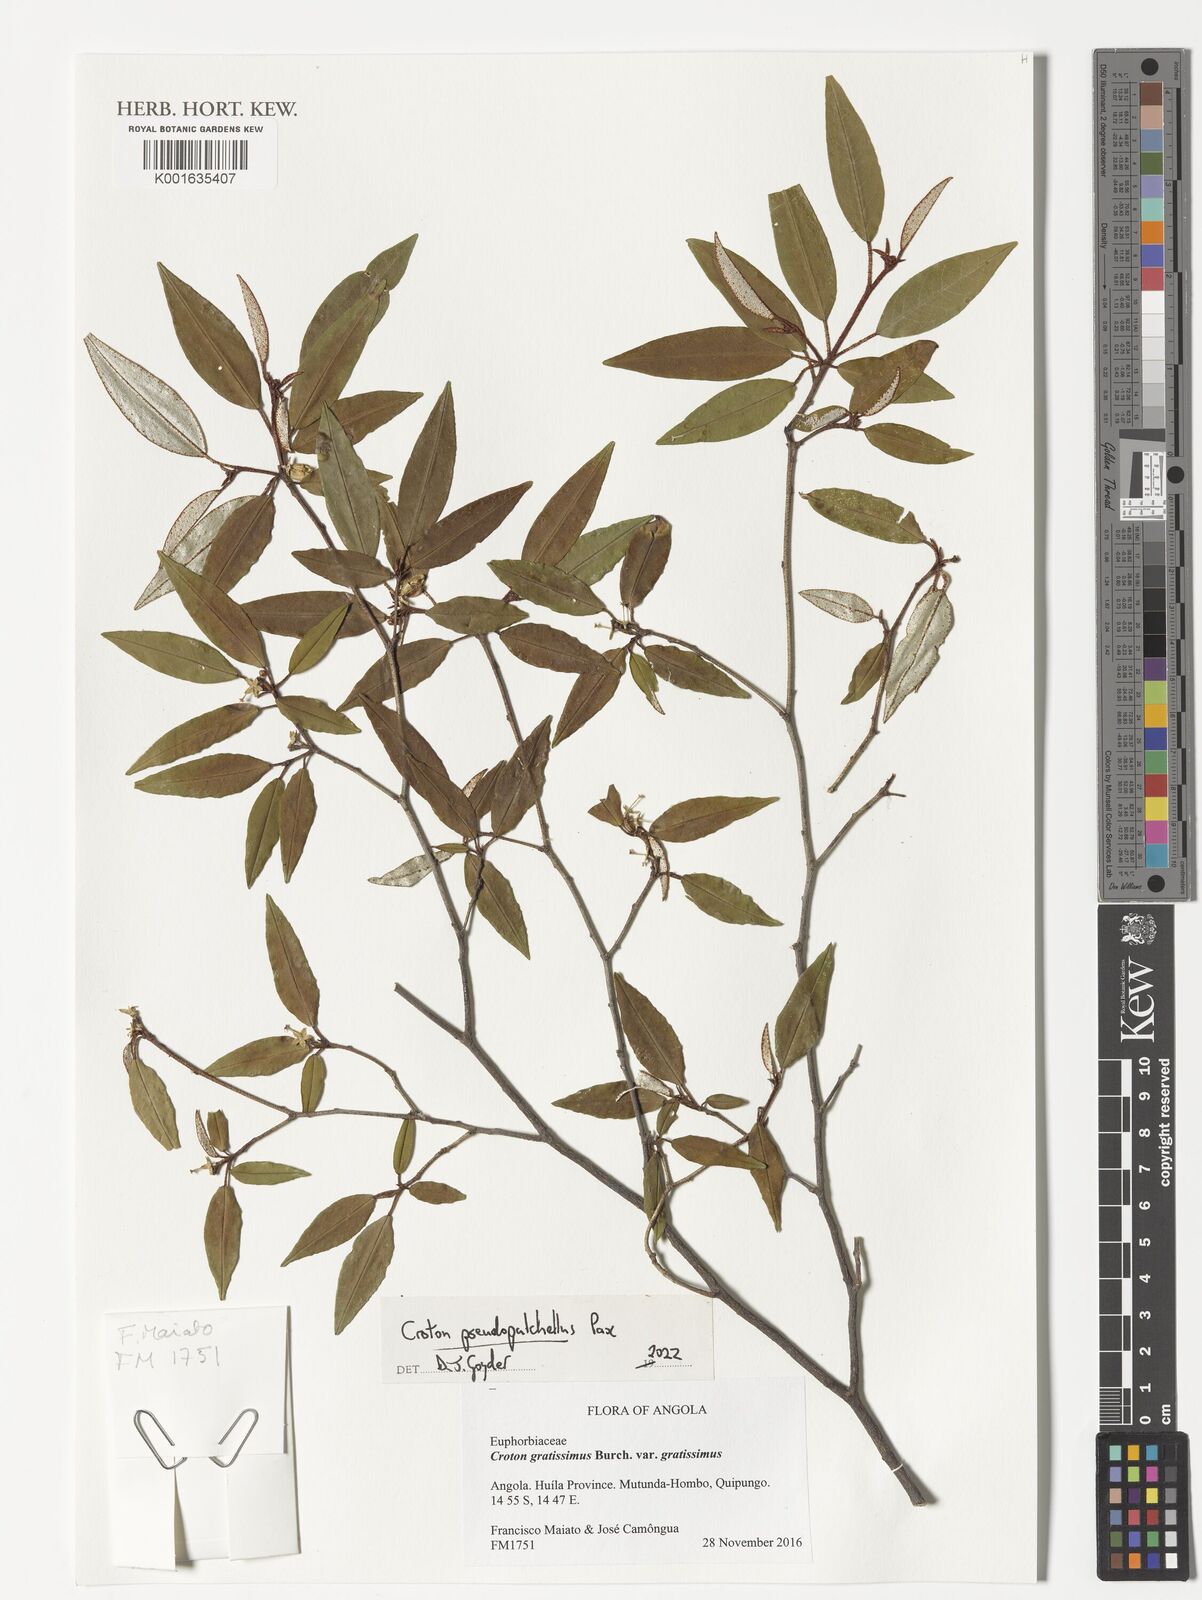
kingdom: Plantae
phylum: Tracheophyta
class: Magnoliopsida
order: Malpighiales
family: Euphorbiaceae
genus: Croton
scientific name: Croton pseudopulchellus
